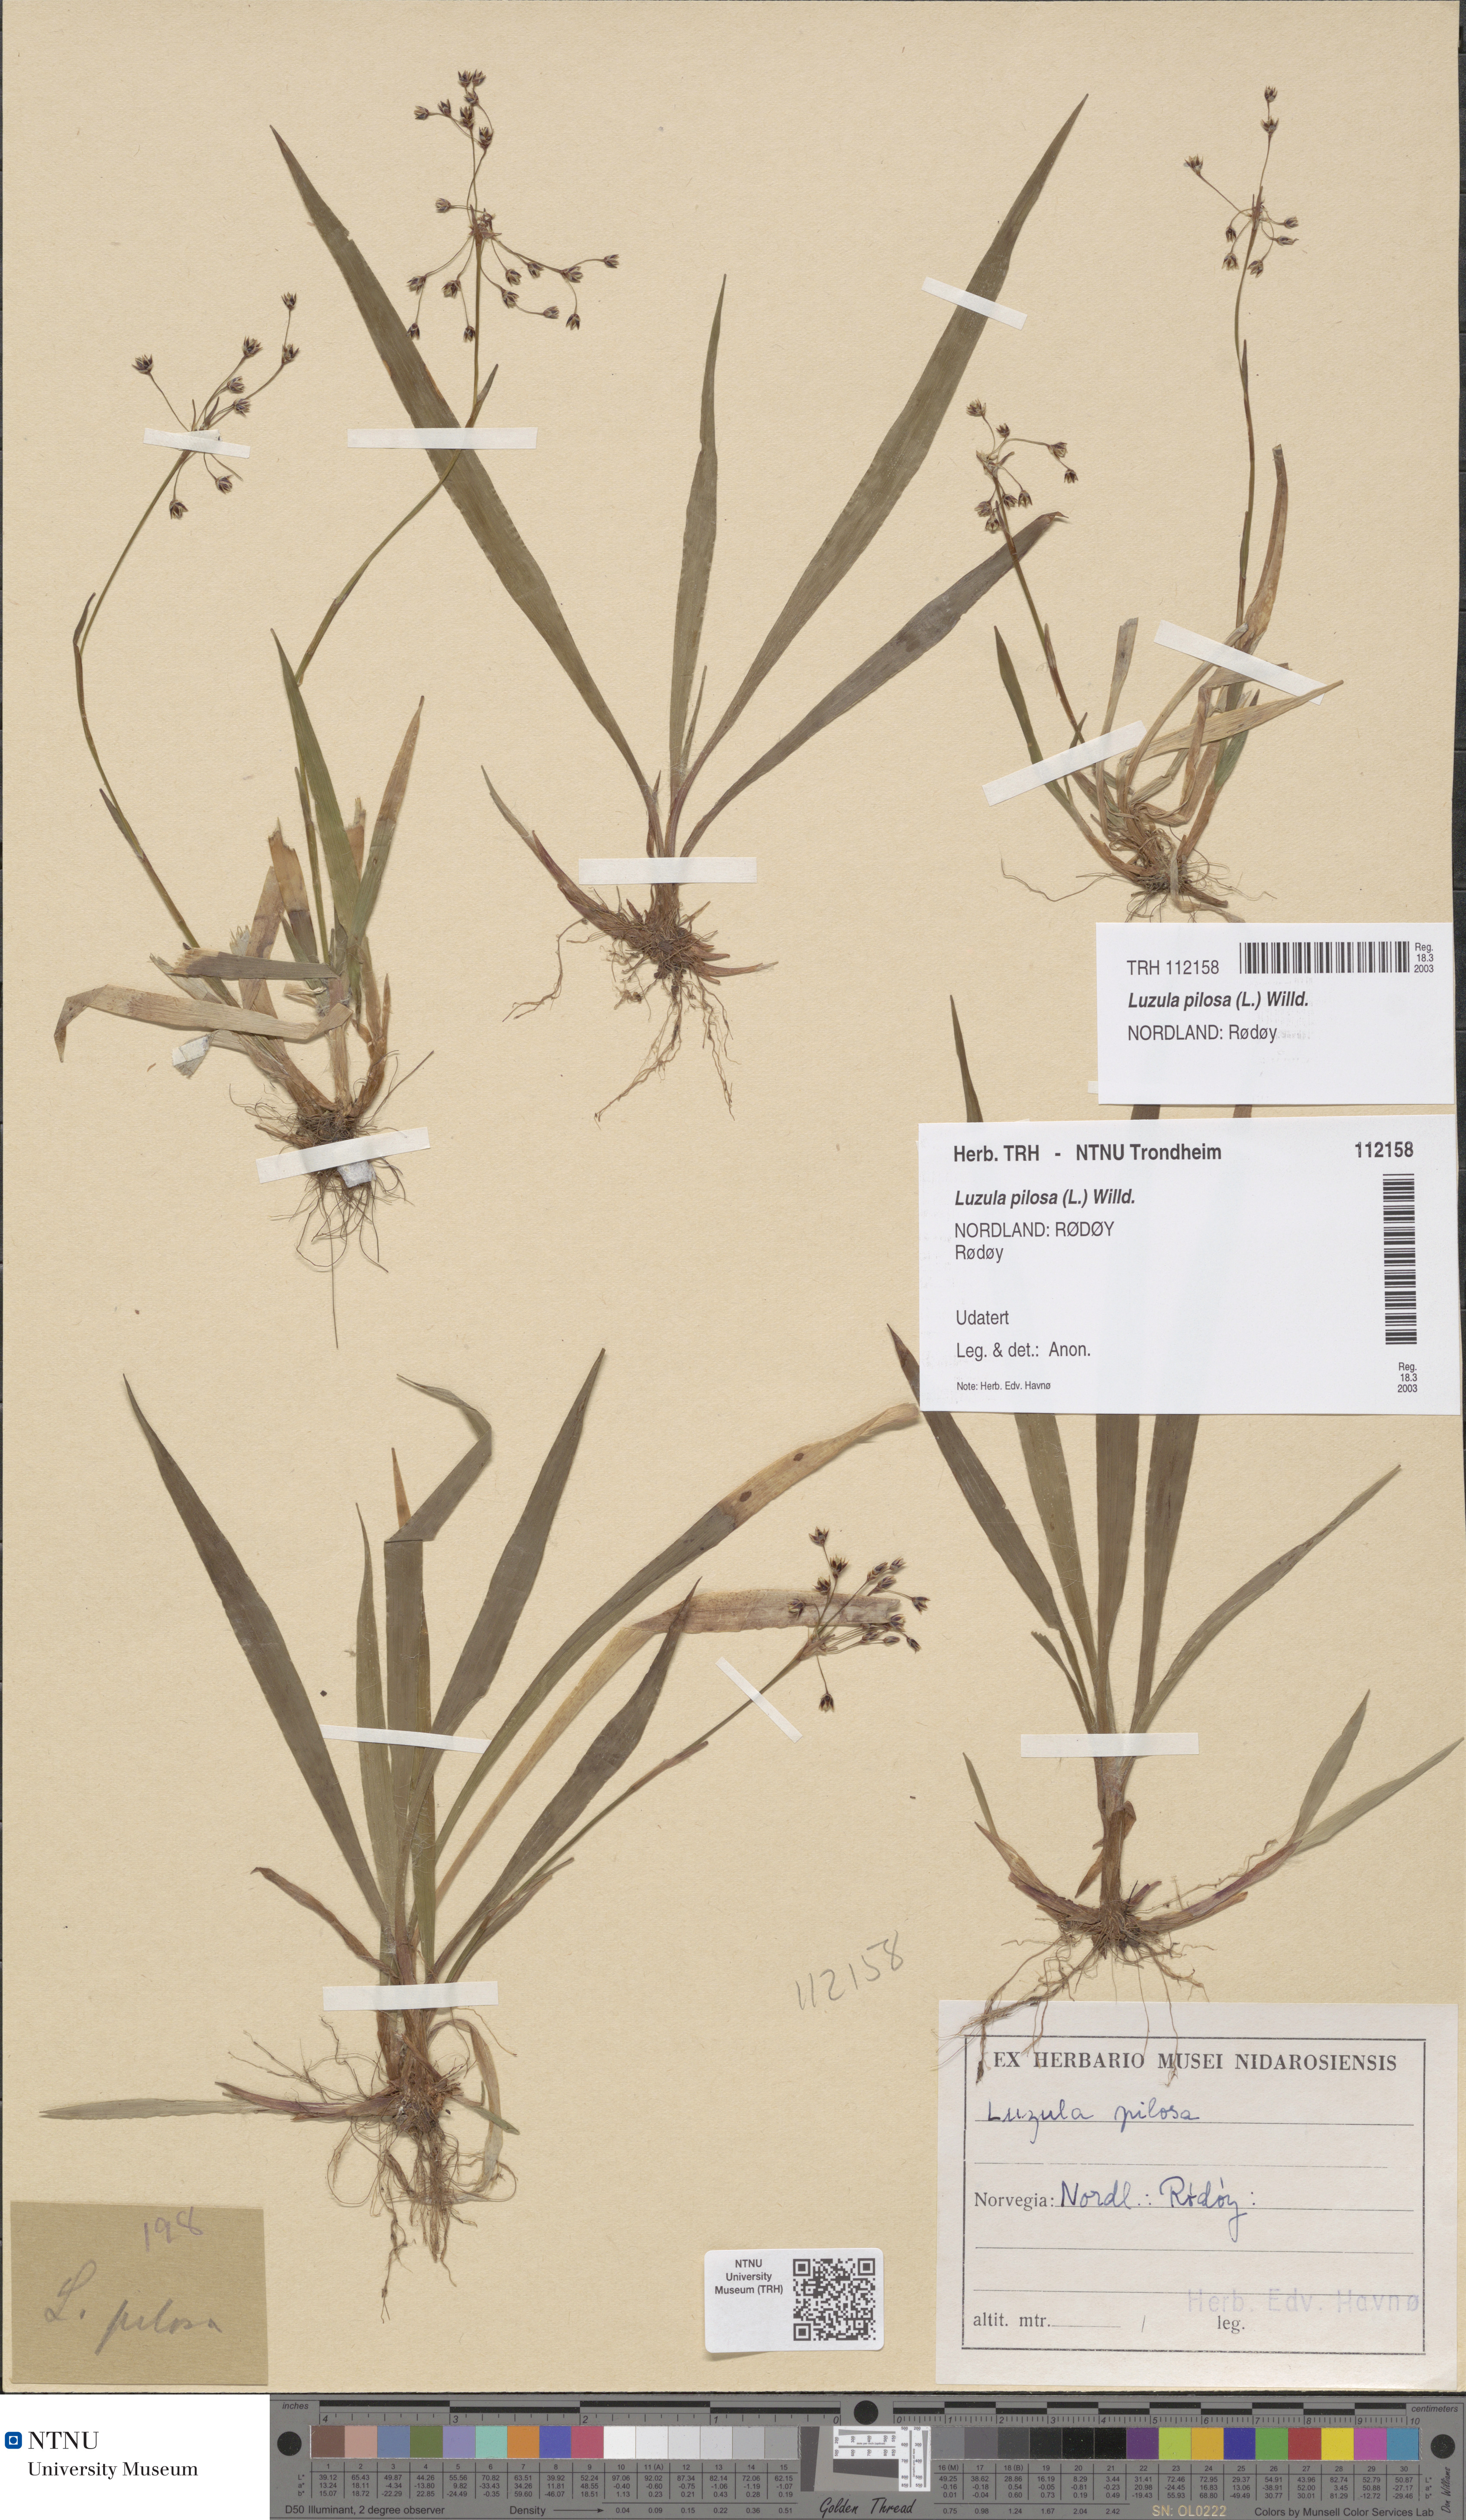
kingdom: Plantae
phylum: Tracheophyta
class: Liliopsida
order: Poales
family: Juncaceae
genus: Luzula
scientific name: Luzula pilosa
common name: Hairy wood-rush
